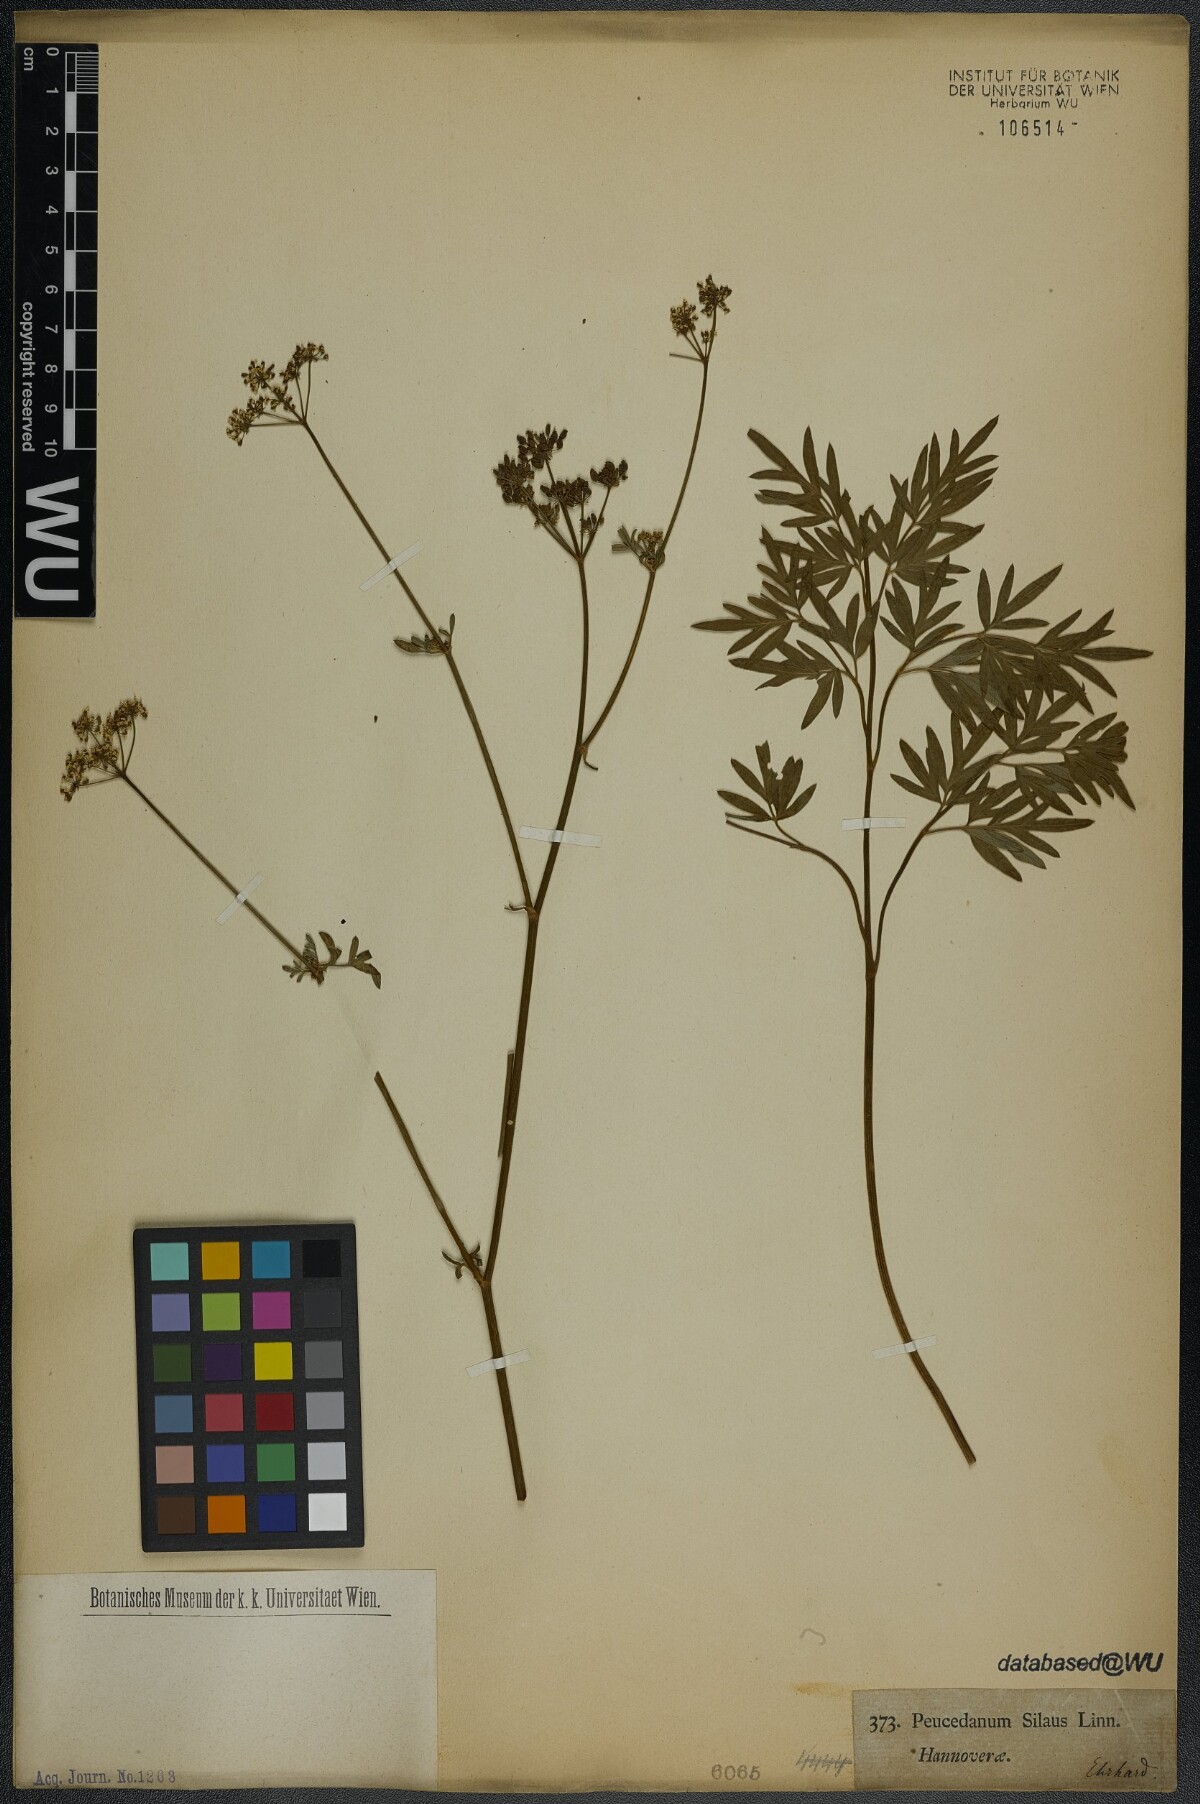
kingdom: Plantae
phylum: Tracheophyta
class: Magnoliopsida
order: Apiales
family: Apiaceae
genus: Silaum
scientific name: Silaum silaus
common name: Pepper-saxifrage
